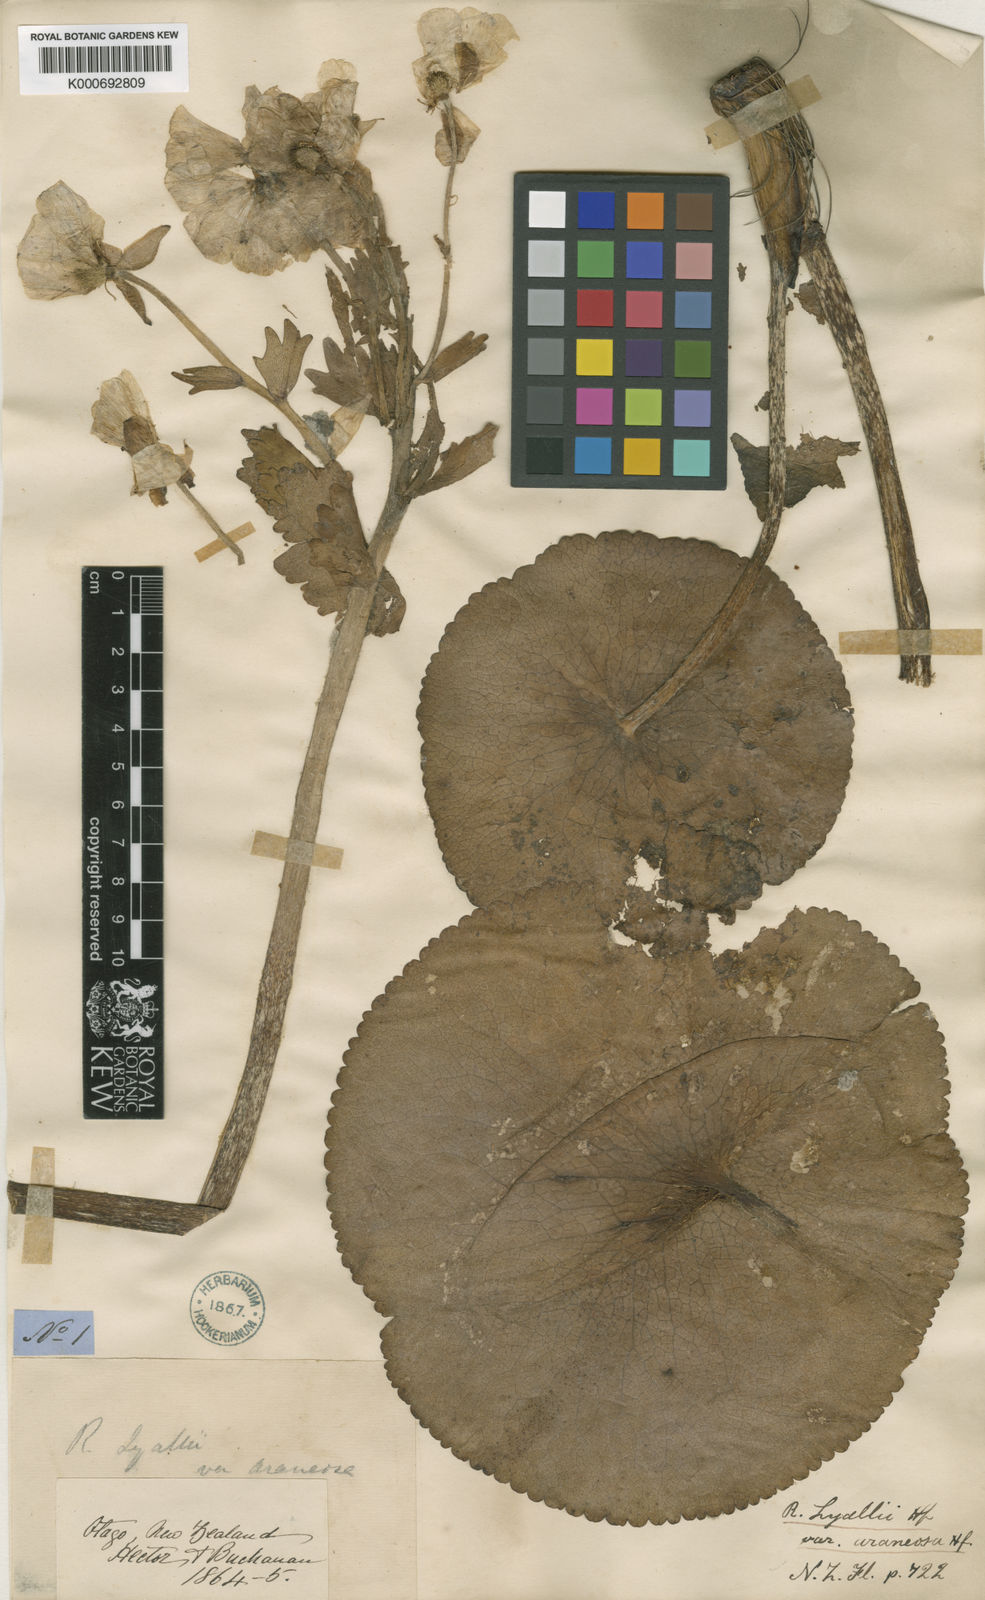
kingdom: Plantae
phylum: Tracheophyta
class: Magnoliopsida
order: Ranunculales
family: Ranunculaceae
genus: Ranunculus
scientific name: Ranunculus lyallii
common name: Mountain-lily
